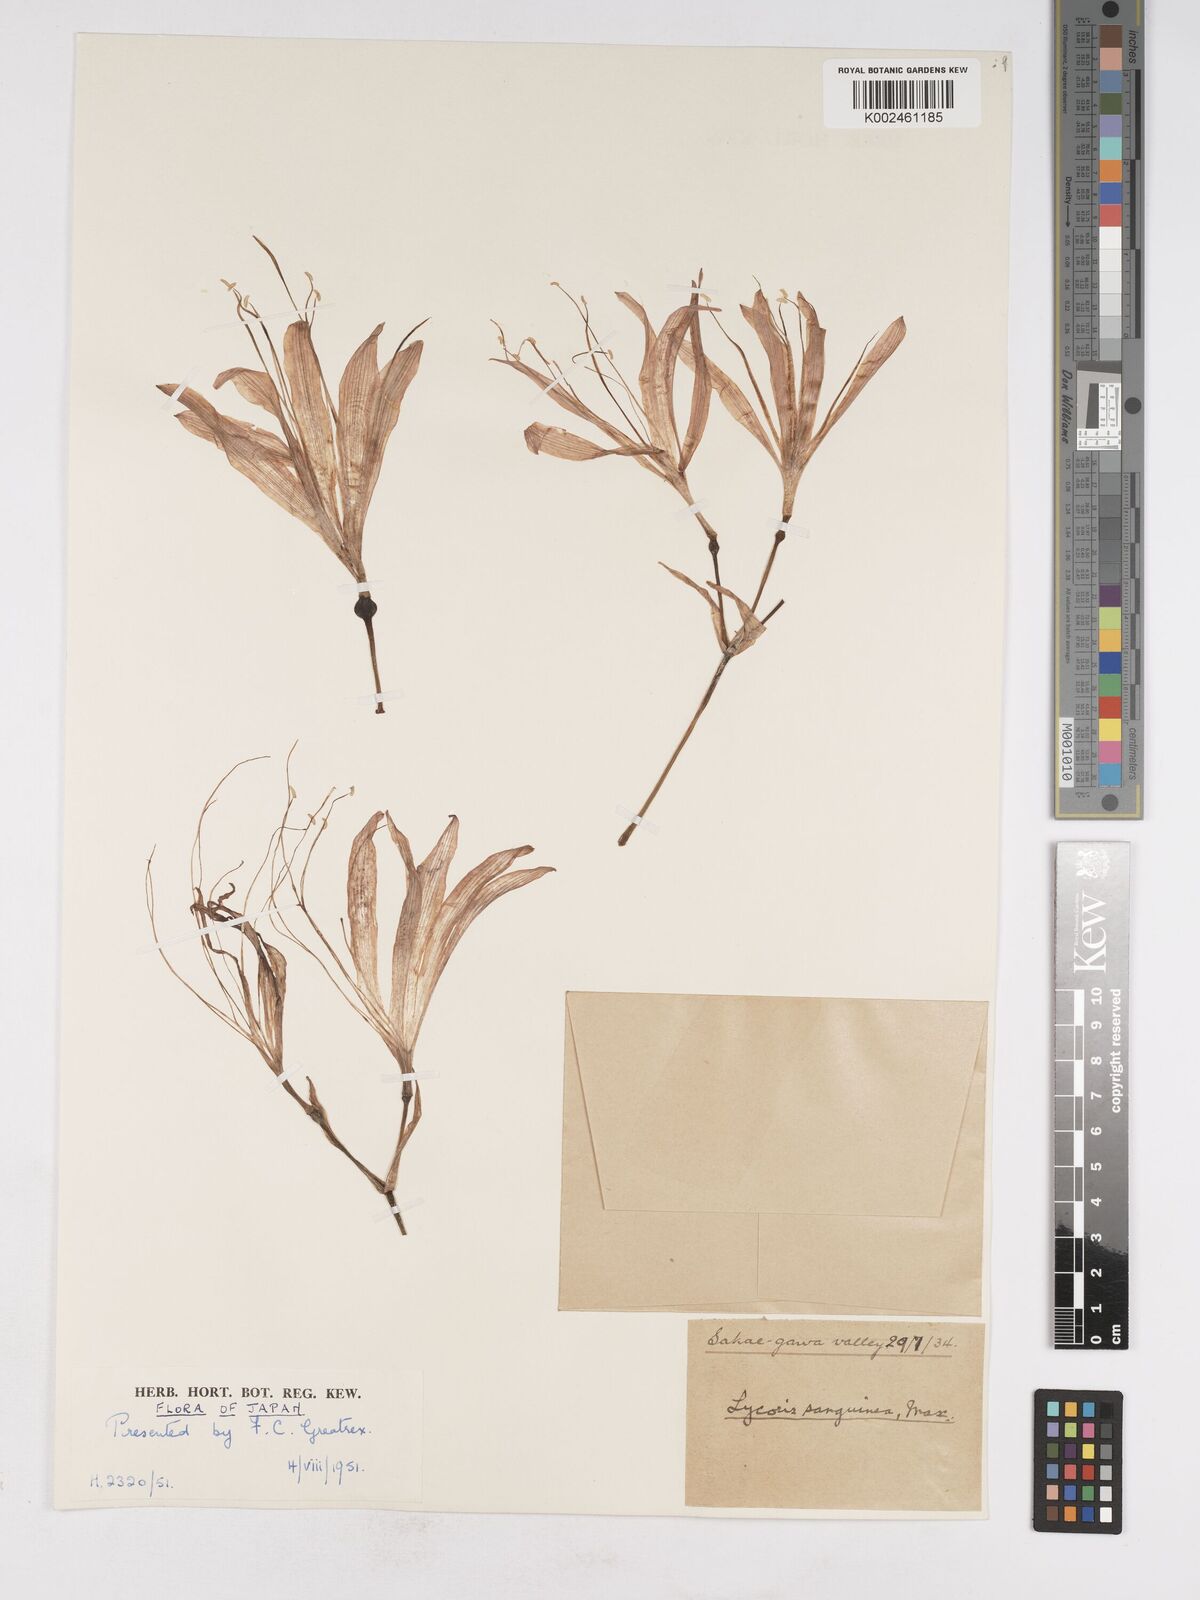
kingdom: Plantae
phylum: Tracheophyta
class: Liliopsida
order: Asparagales
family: Amaryllidaceae
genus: Lycoris
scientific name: Lycoris sanguinea
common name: Spider-lily
